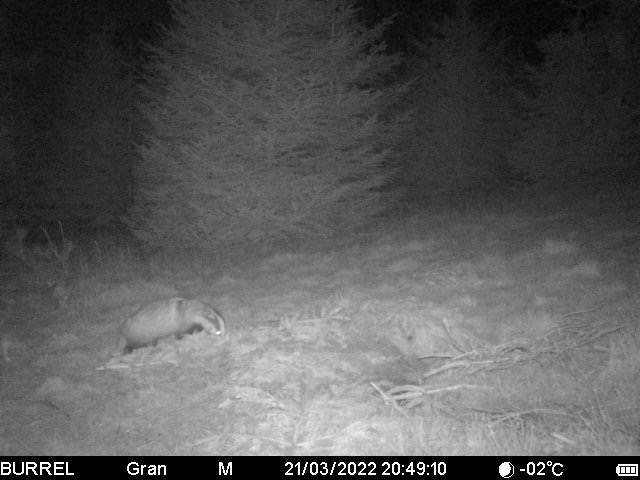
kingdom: Animalia
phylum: Chordata
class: Mammalia
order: Carnivora
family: Mustelidae
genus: Meles
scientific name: Meles meles
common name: Grævling
